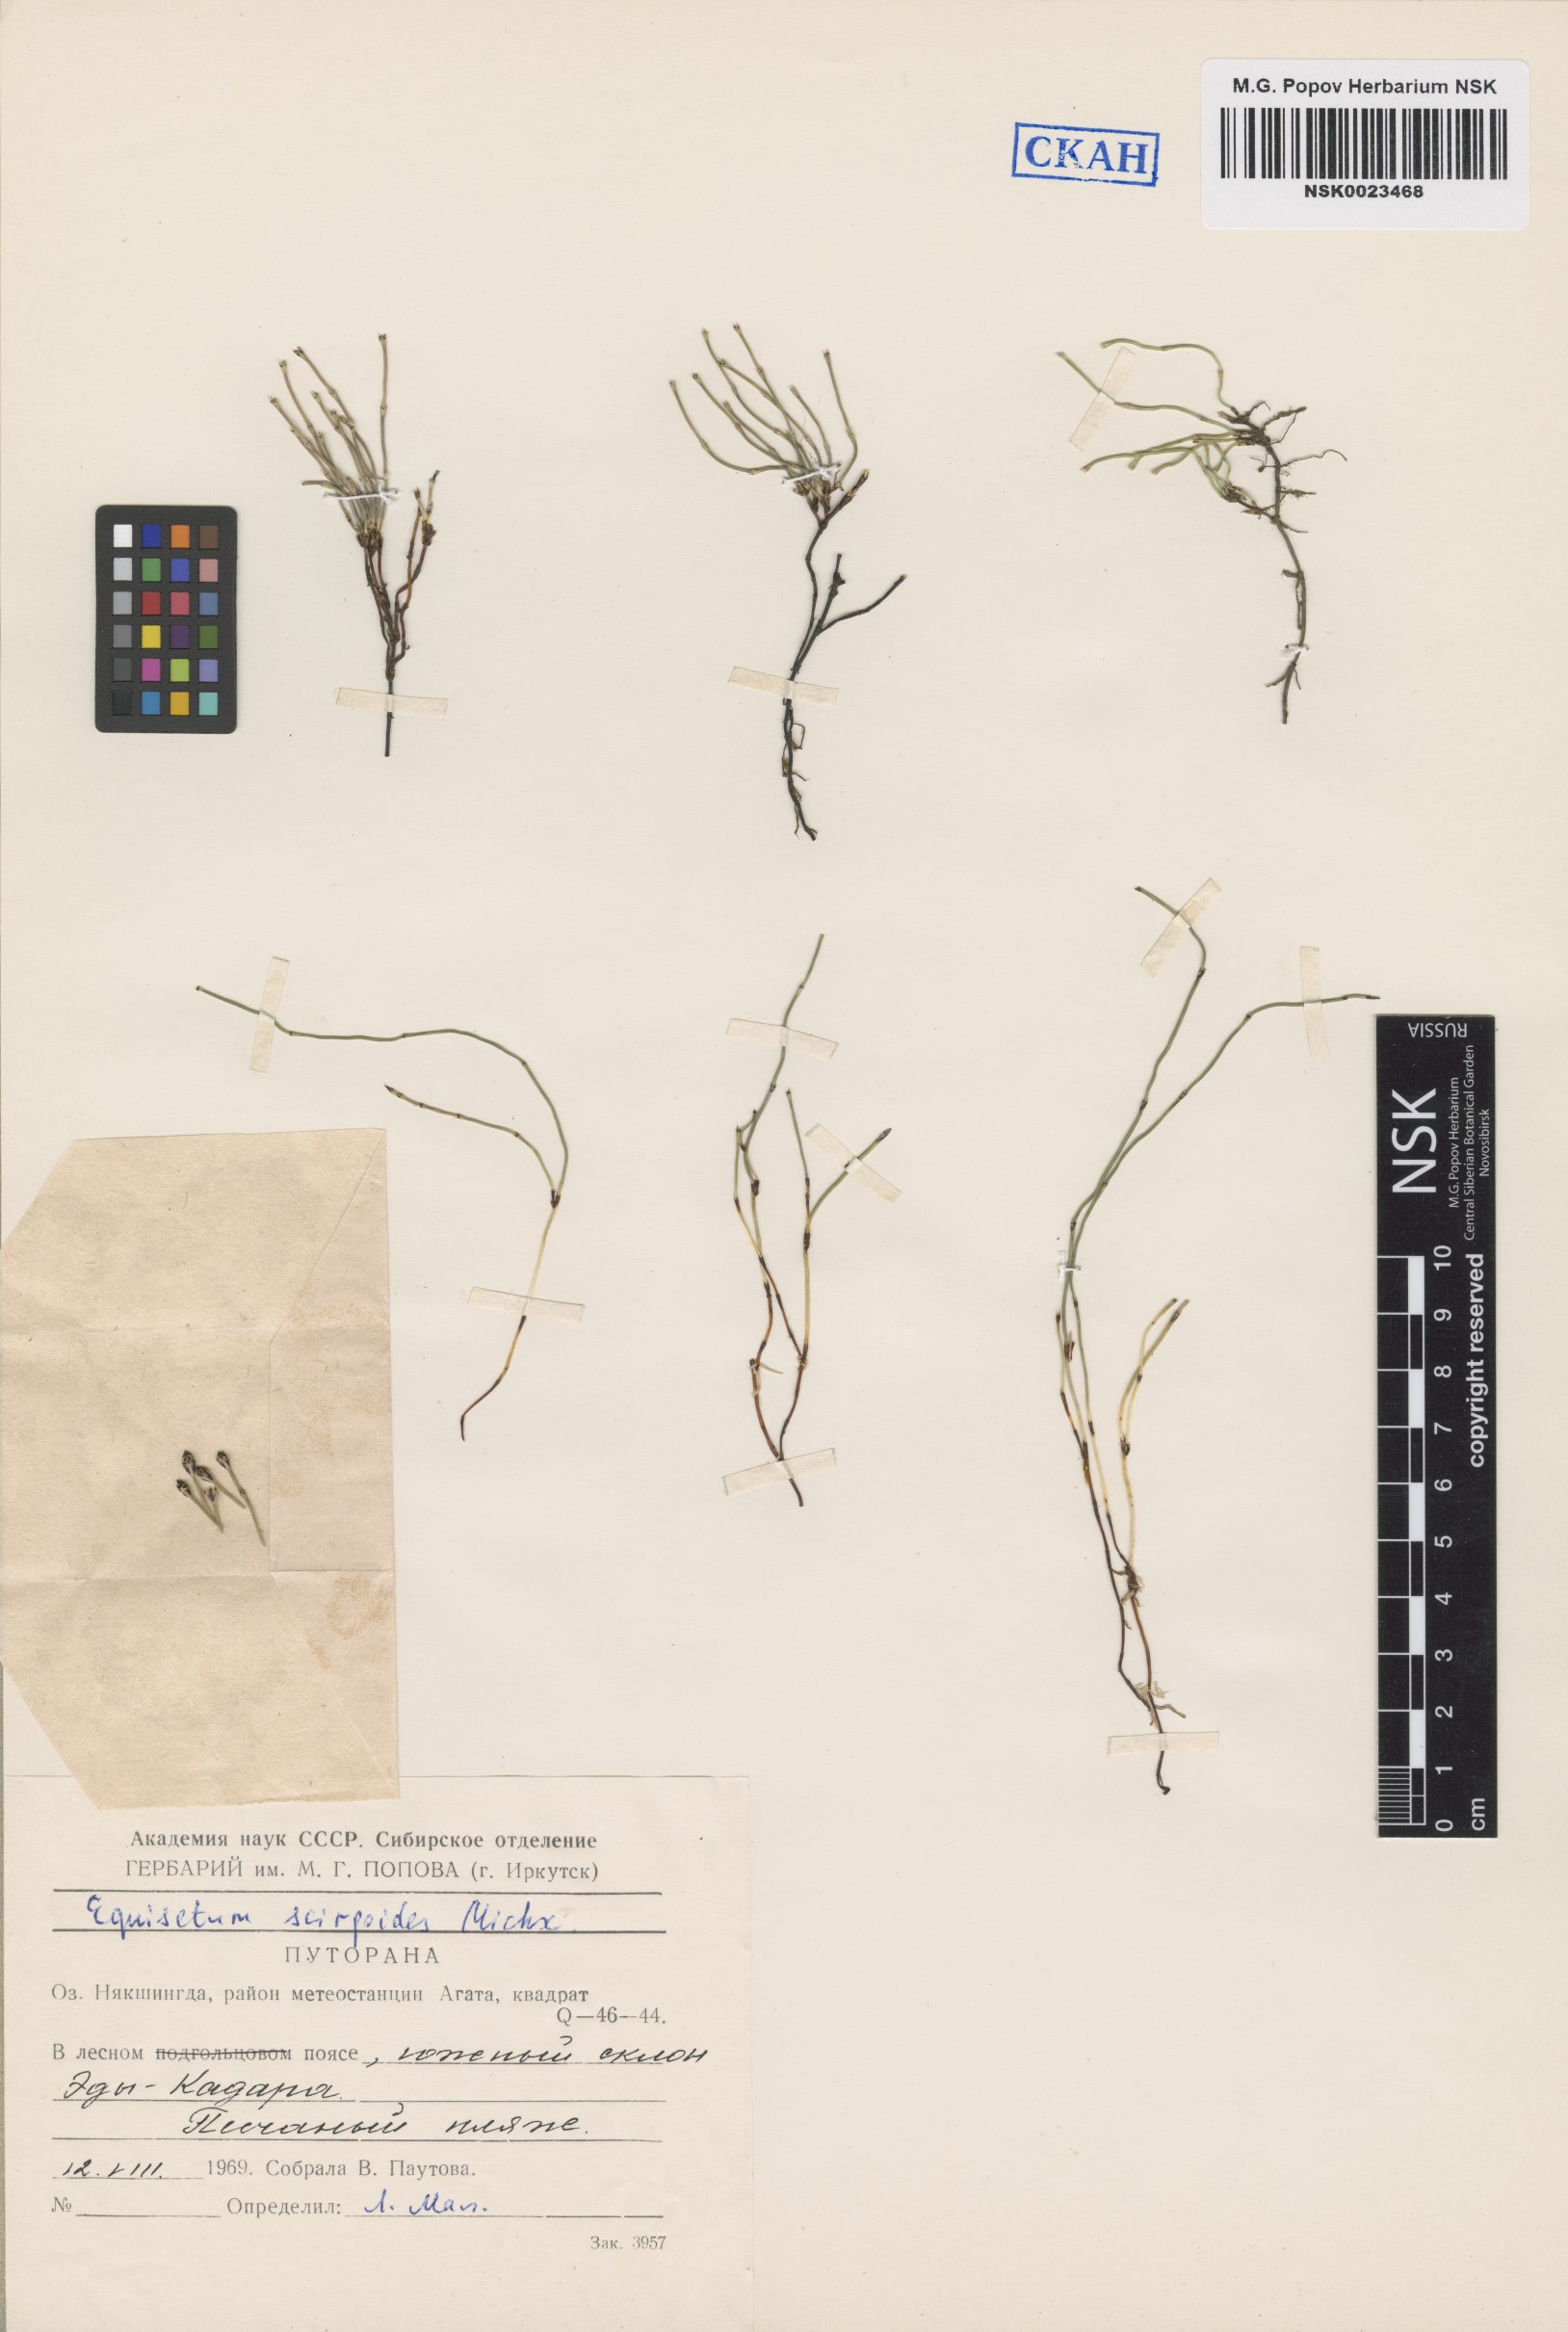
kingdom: Plantae
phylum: Tracheophyta
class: Polypodiopsida
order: Equisetales
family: Equisetaceae
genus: Equisetum
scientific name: Equisetum scirpoides
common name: Delicate horsetail
